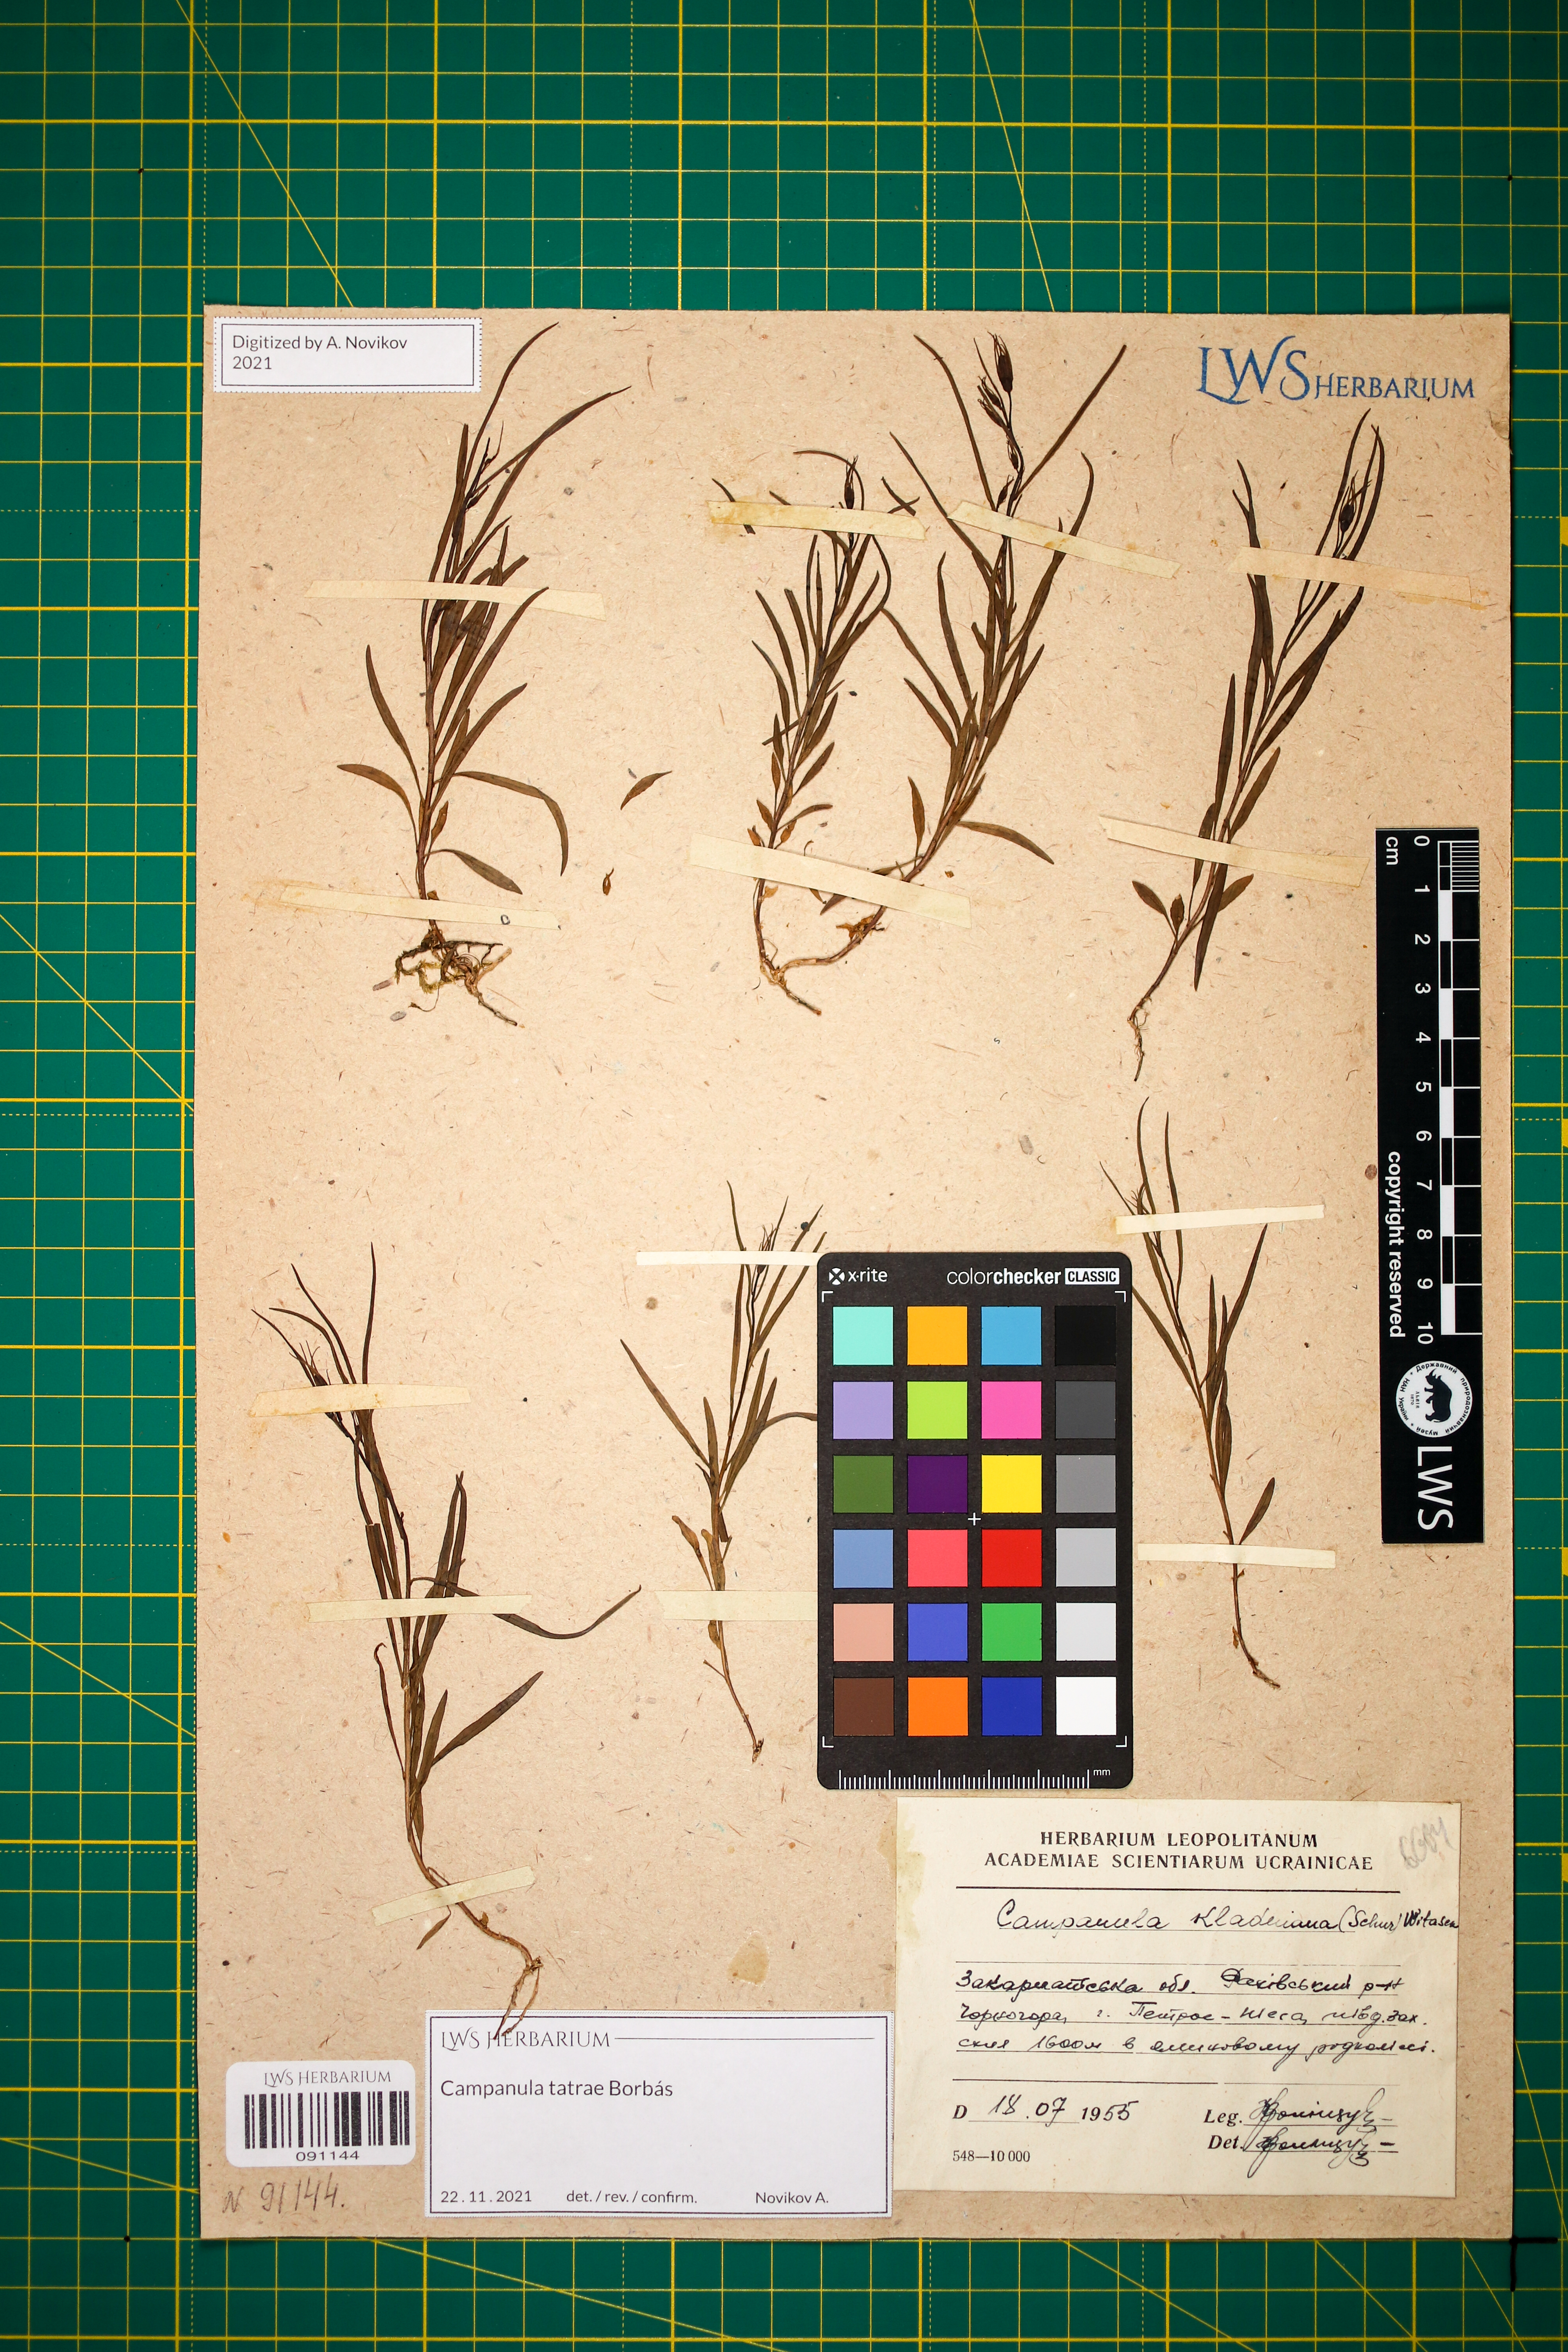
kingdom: Plantae
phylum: Tracheophyta
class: Magnoliopsida
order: Asterales
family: Campanulaceae
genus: Campanula
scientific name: Campanula kladniana
